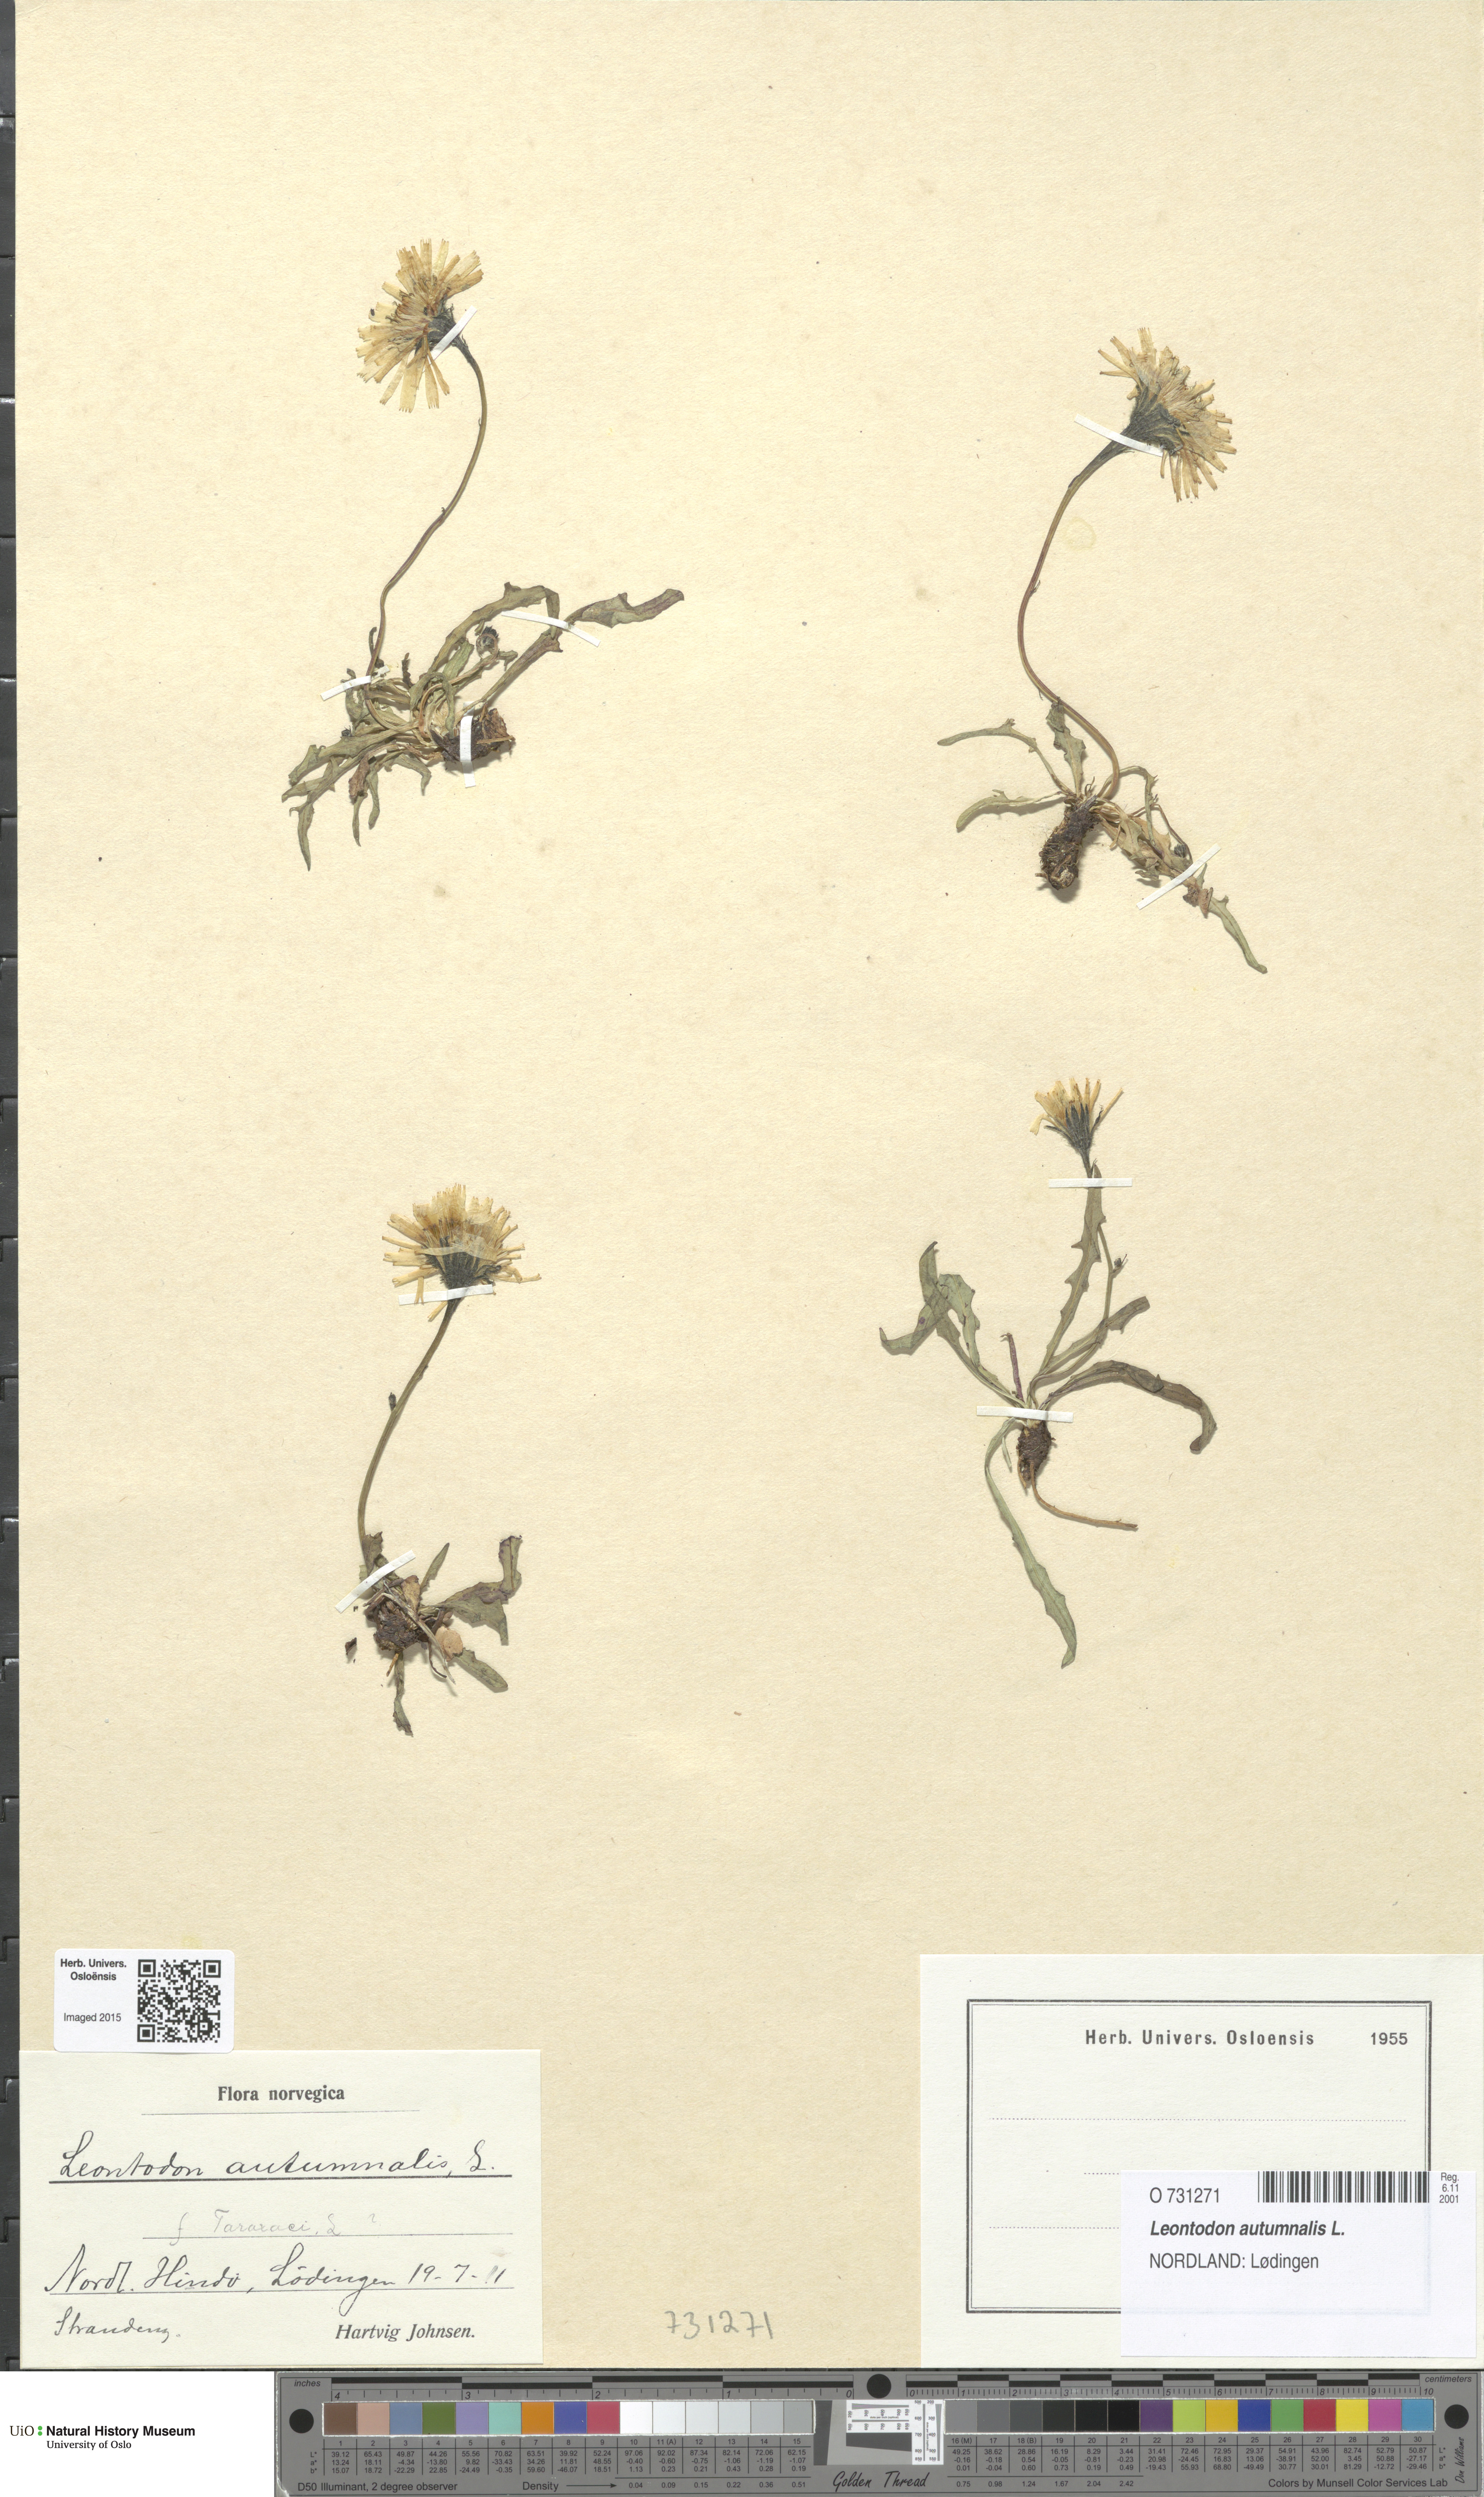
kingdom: Plantae
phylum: Tracheophyta
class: Magnoliopsida
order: Asterales
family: Asteraceae
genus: Scorzoneroides
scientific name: Scorzoneroides autumnalis
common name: Autumn hawkbit
